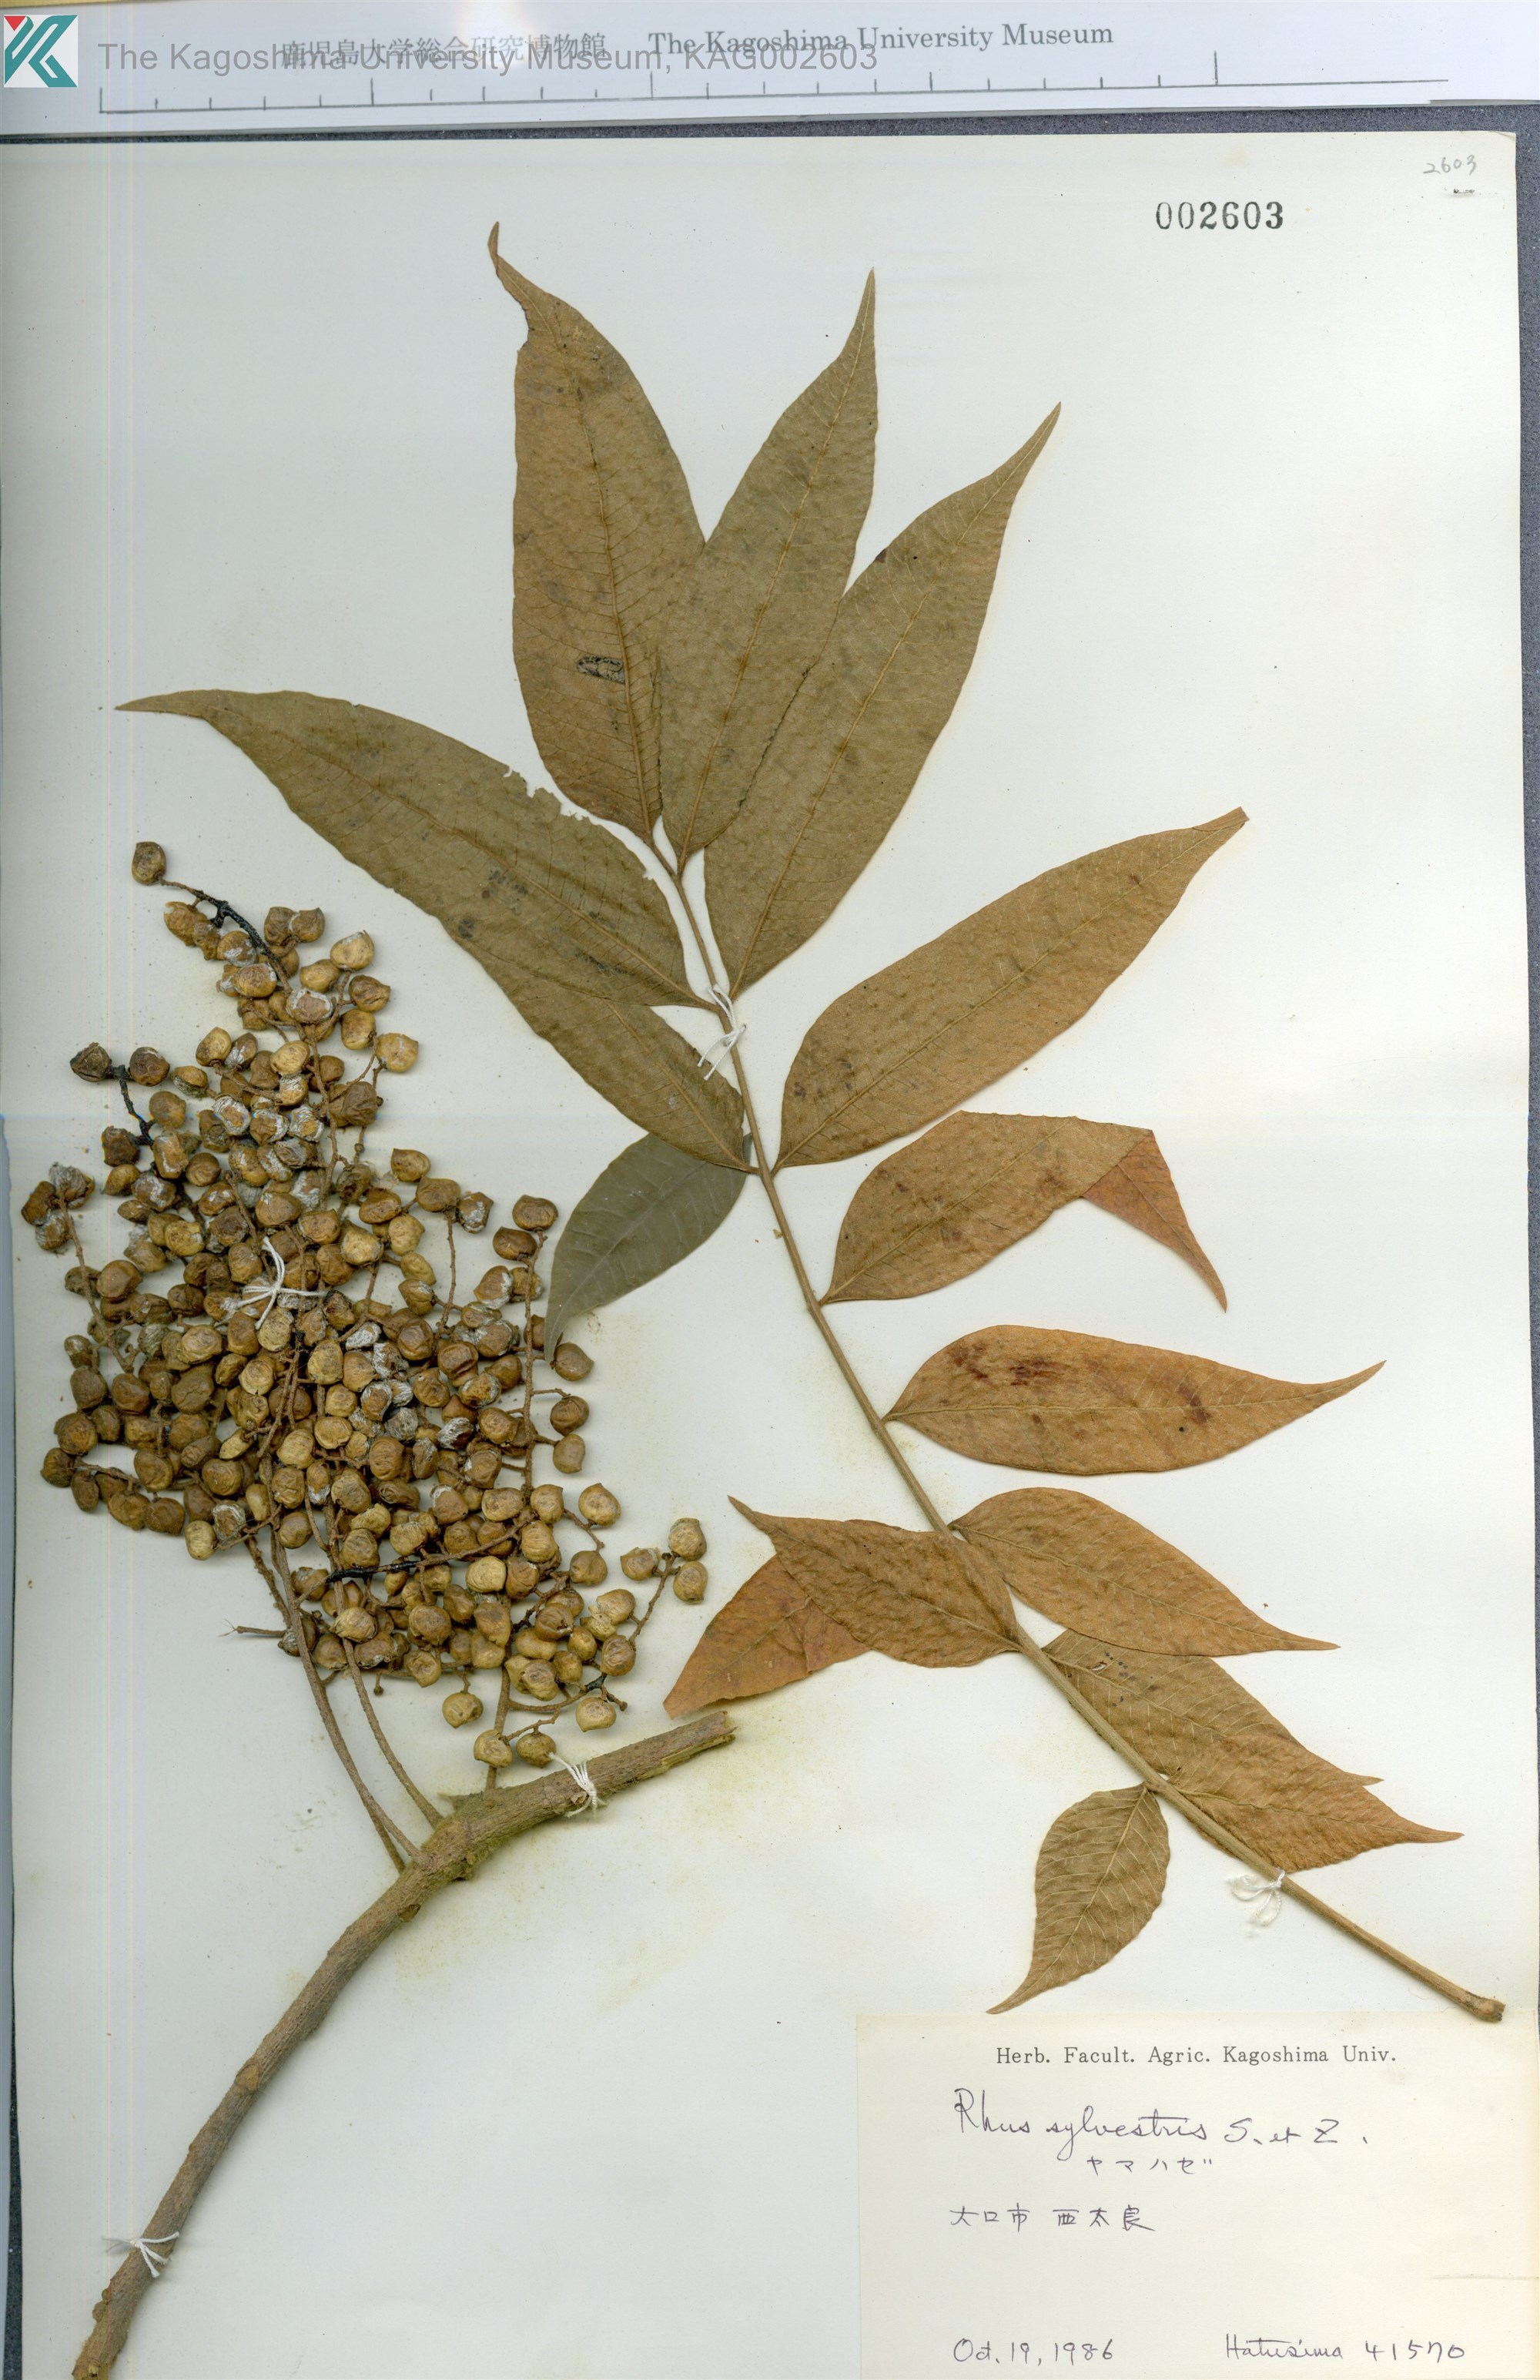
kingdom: Plantae
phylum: Tracheophyta
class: Magnoliopsida
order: Sapindales
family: Anacardiaceae
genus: Toxicodendron
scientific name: Toxicodendron sylvestre
